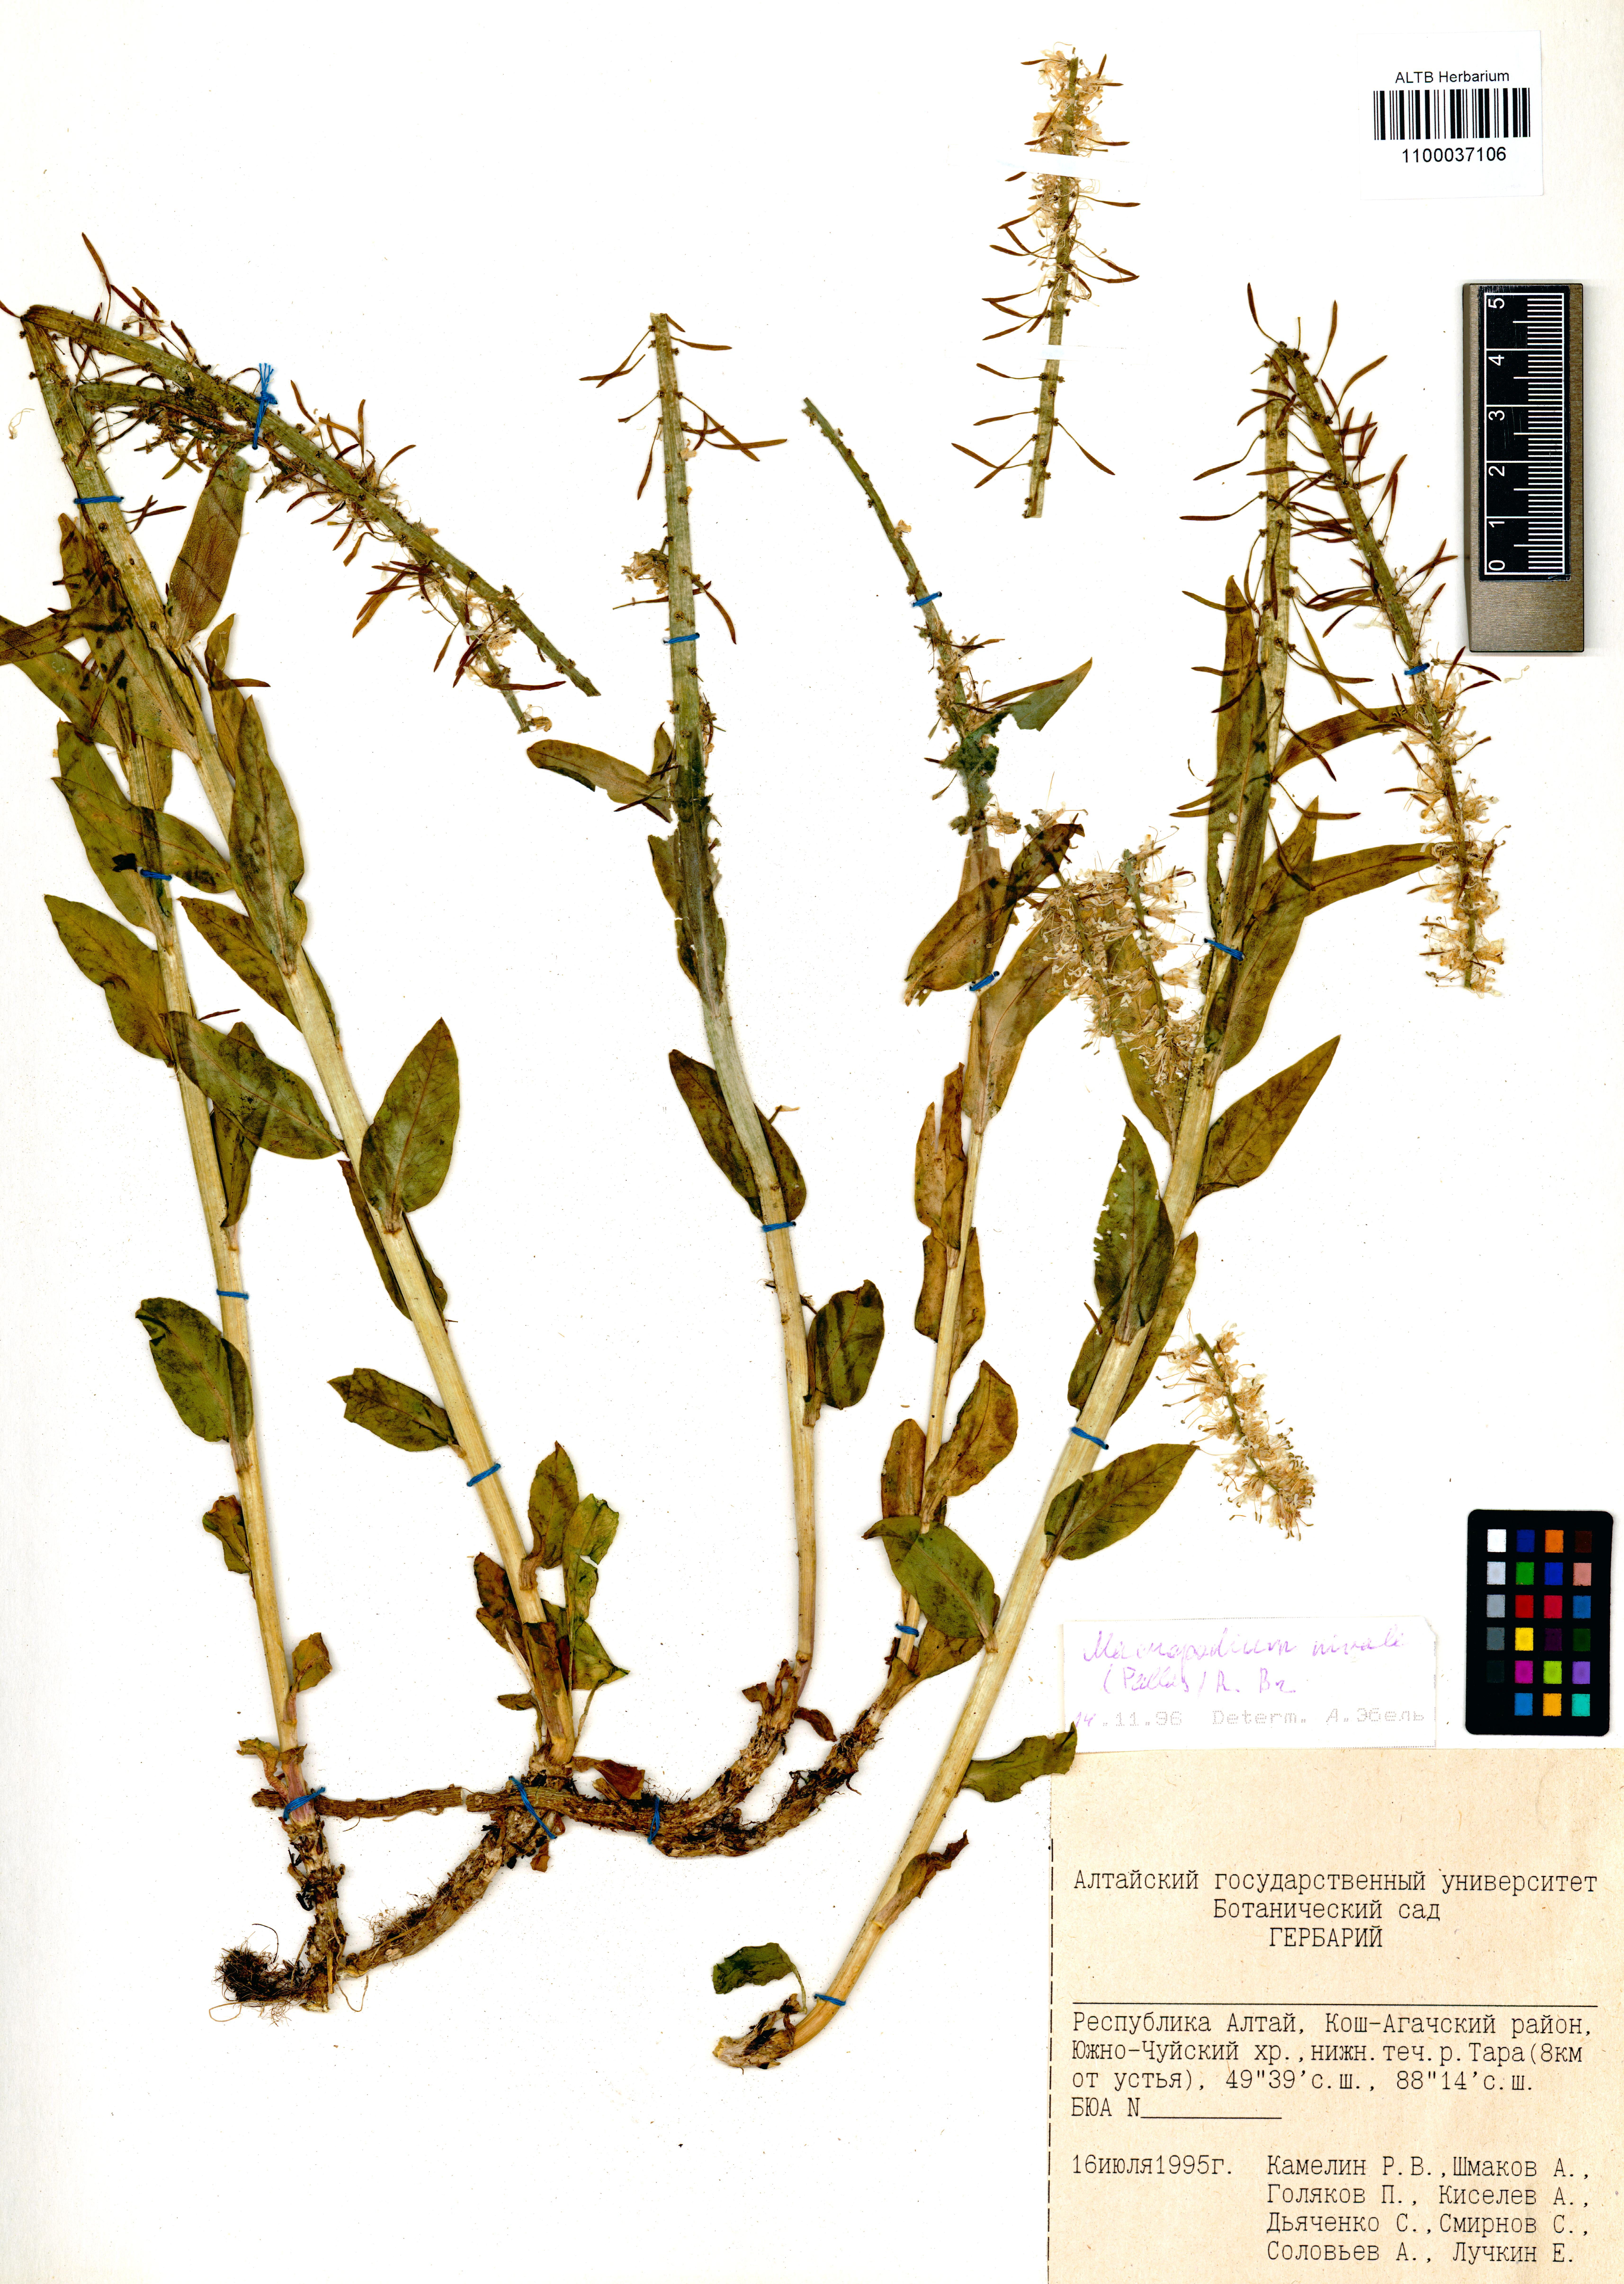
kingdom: Plantae
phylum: Tracheophyta
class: Magnoliopsida
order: Brassicales
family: Brassicaceae
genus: Macropodium
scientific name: Macropodium nivale
